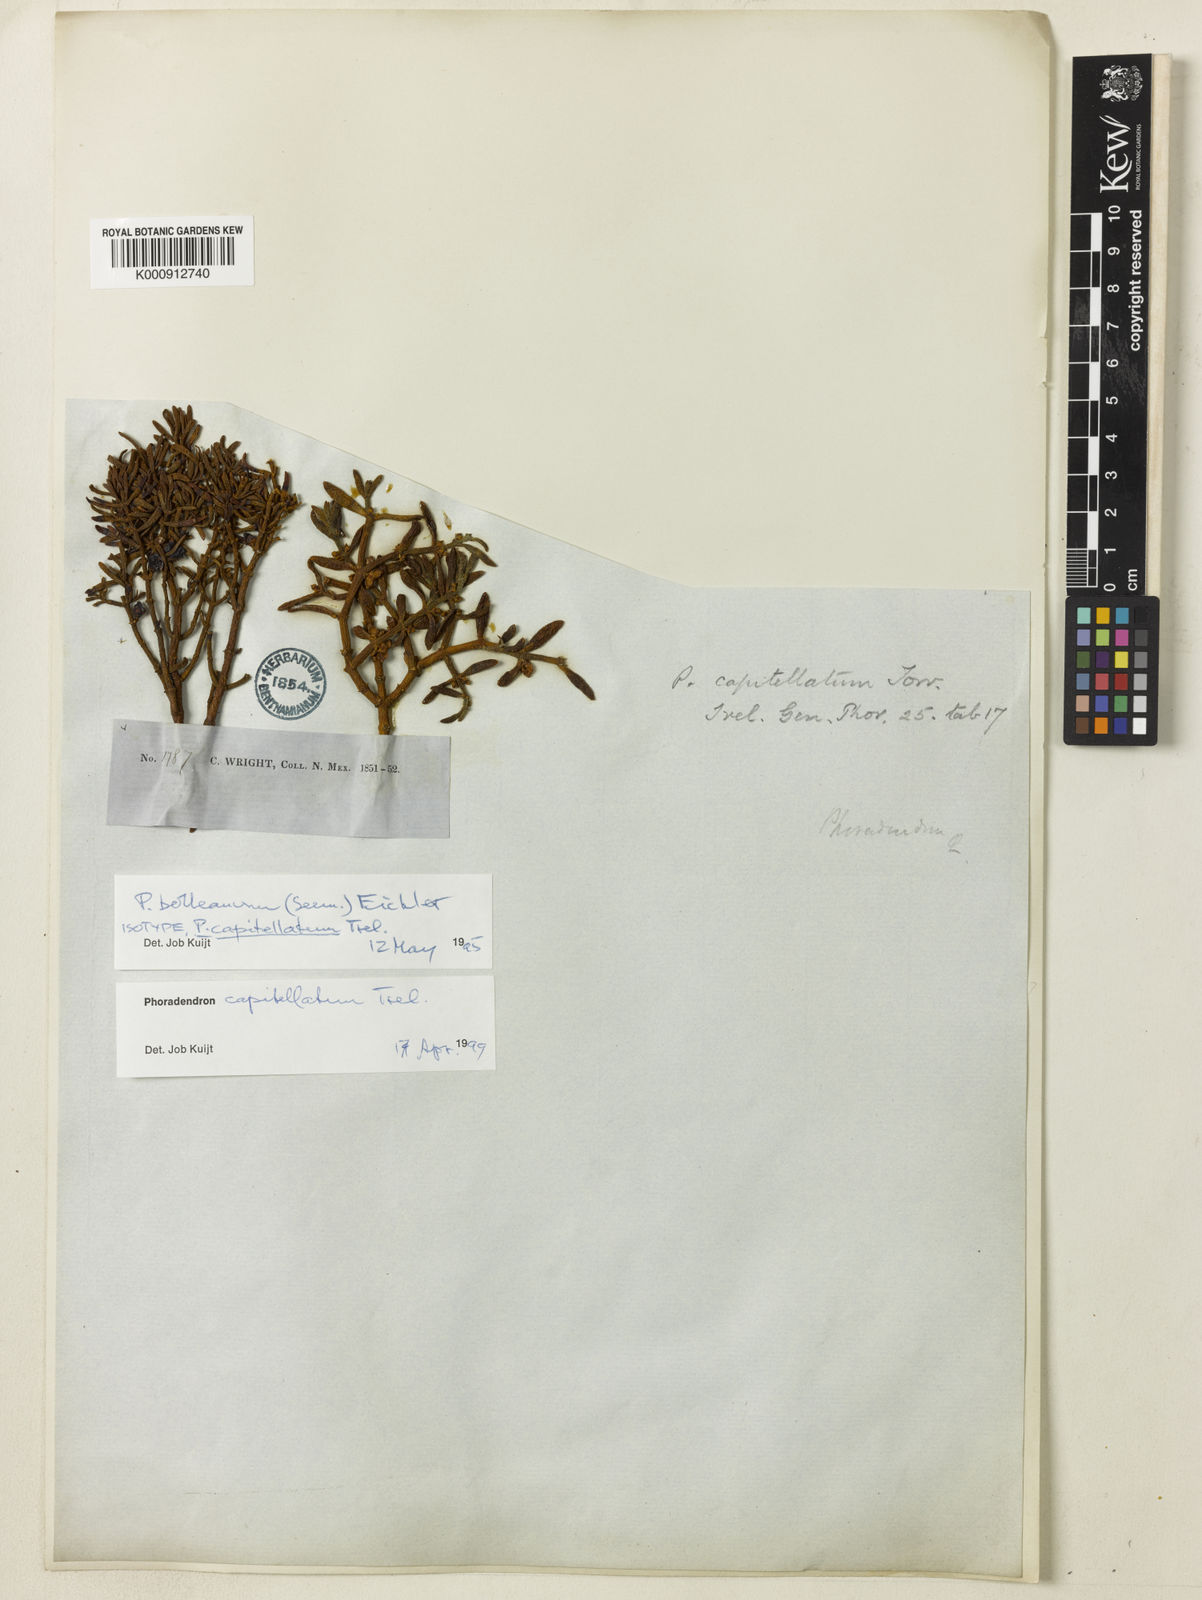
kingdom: Plantae
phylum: Tracheophyta
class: Magnoliopsida
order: Santalales
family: Viscaceae
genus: Phoradendron
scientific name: Phoradendron capitellatum
